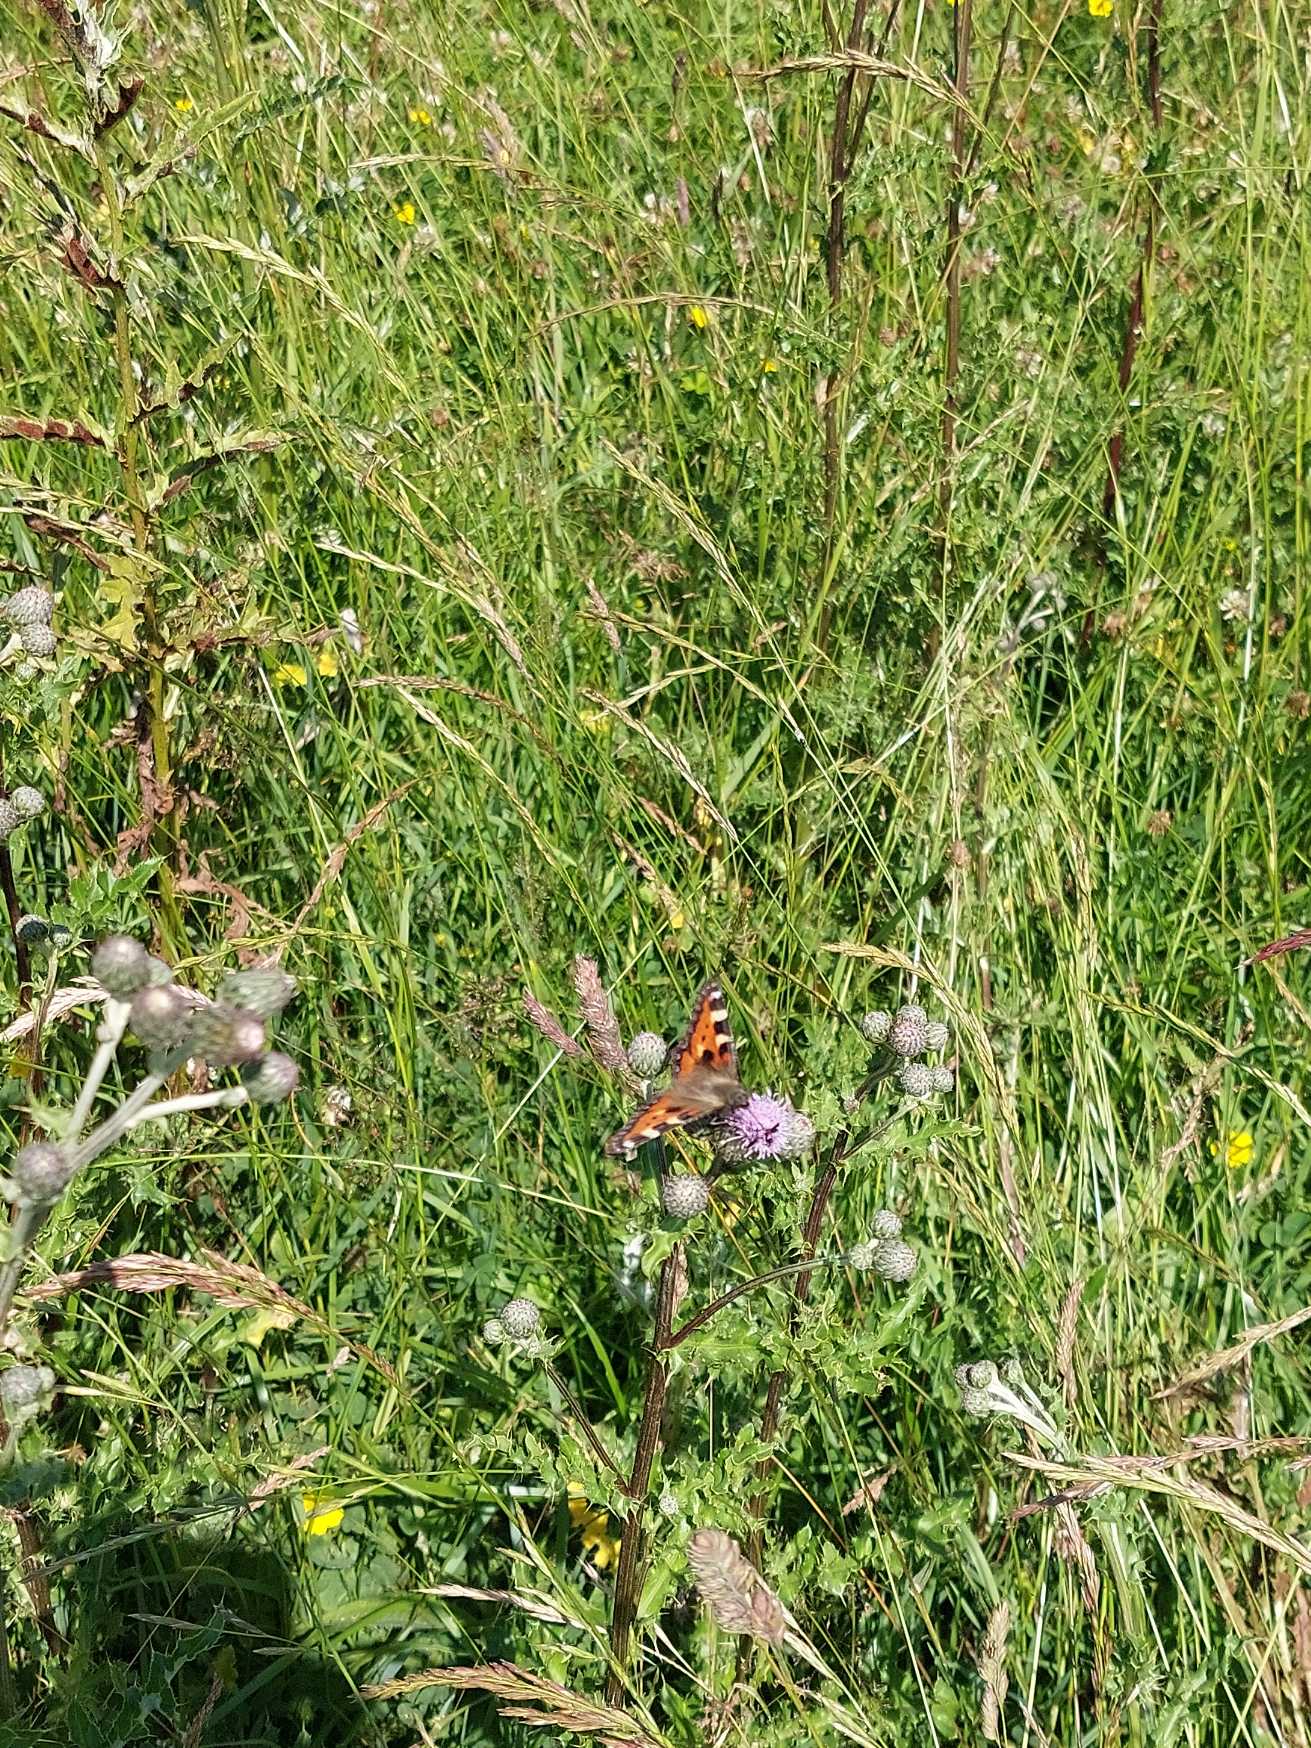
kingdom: Animalia
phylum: Arthropoda
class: Insecta
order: Lepidoptera
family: Nymphalidae
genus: Aglais
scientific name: Aglais urticae
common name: Nældens takvinge
